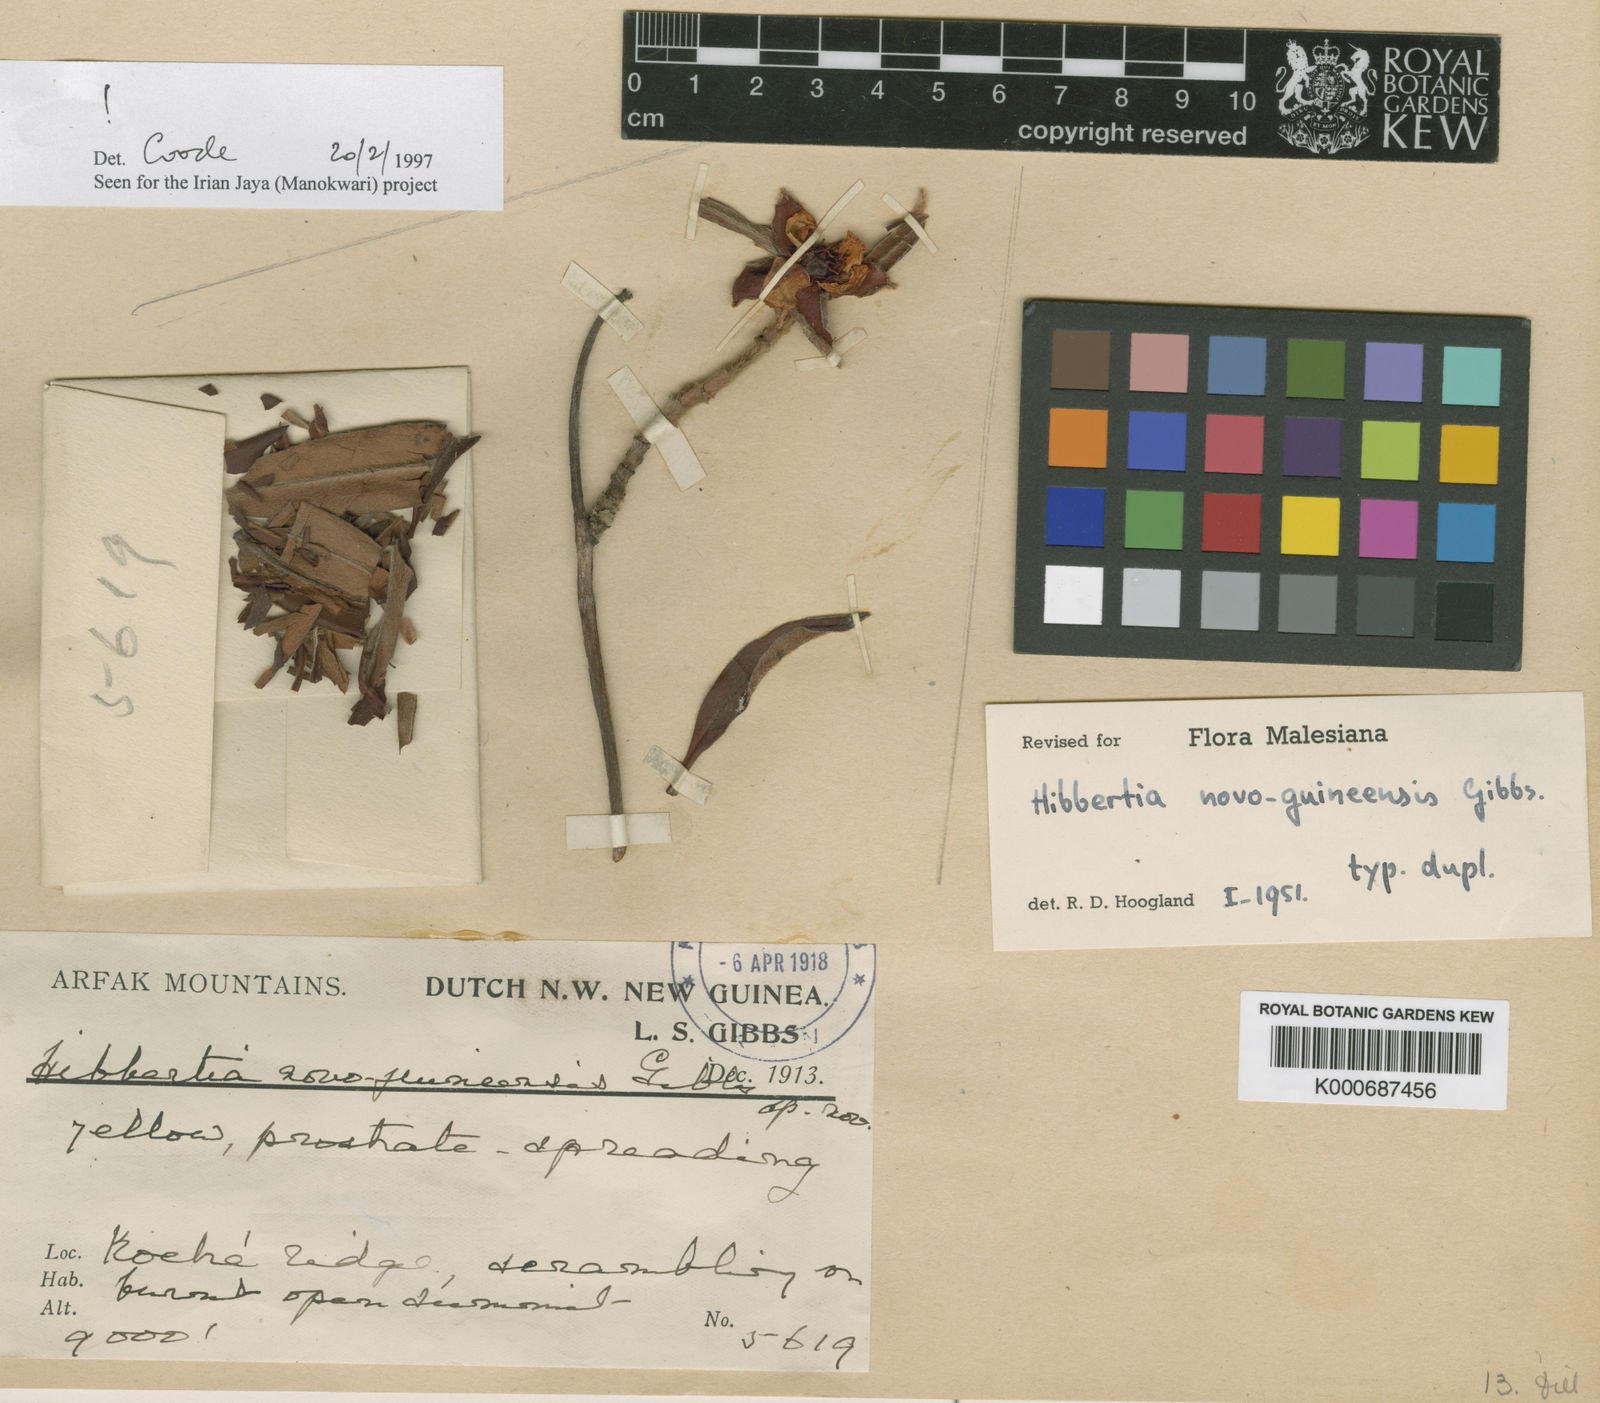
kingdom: Plantae
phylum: Tracheophyta
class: Magnoliopsida
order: Dilleniales
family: Dilleniaceae
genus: Hibbertia
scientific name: Hibbertia
